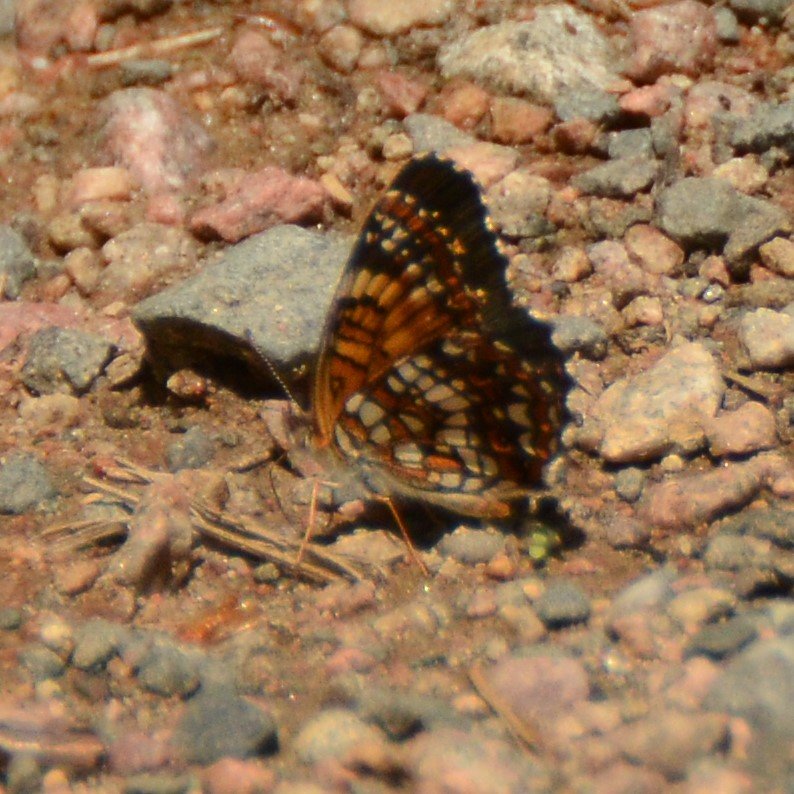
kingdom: Animalia
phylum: Arthropoda
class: Insecta
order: Lepidoptera
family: Nymphalidae
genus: Chlosyne
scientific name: Chlosyne harrisii
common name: Harris's Checkerspot
